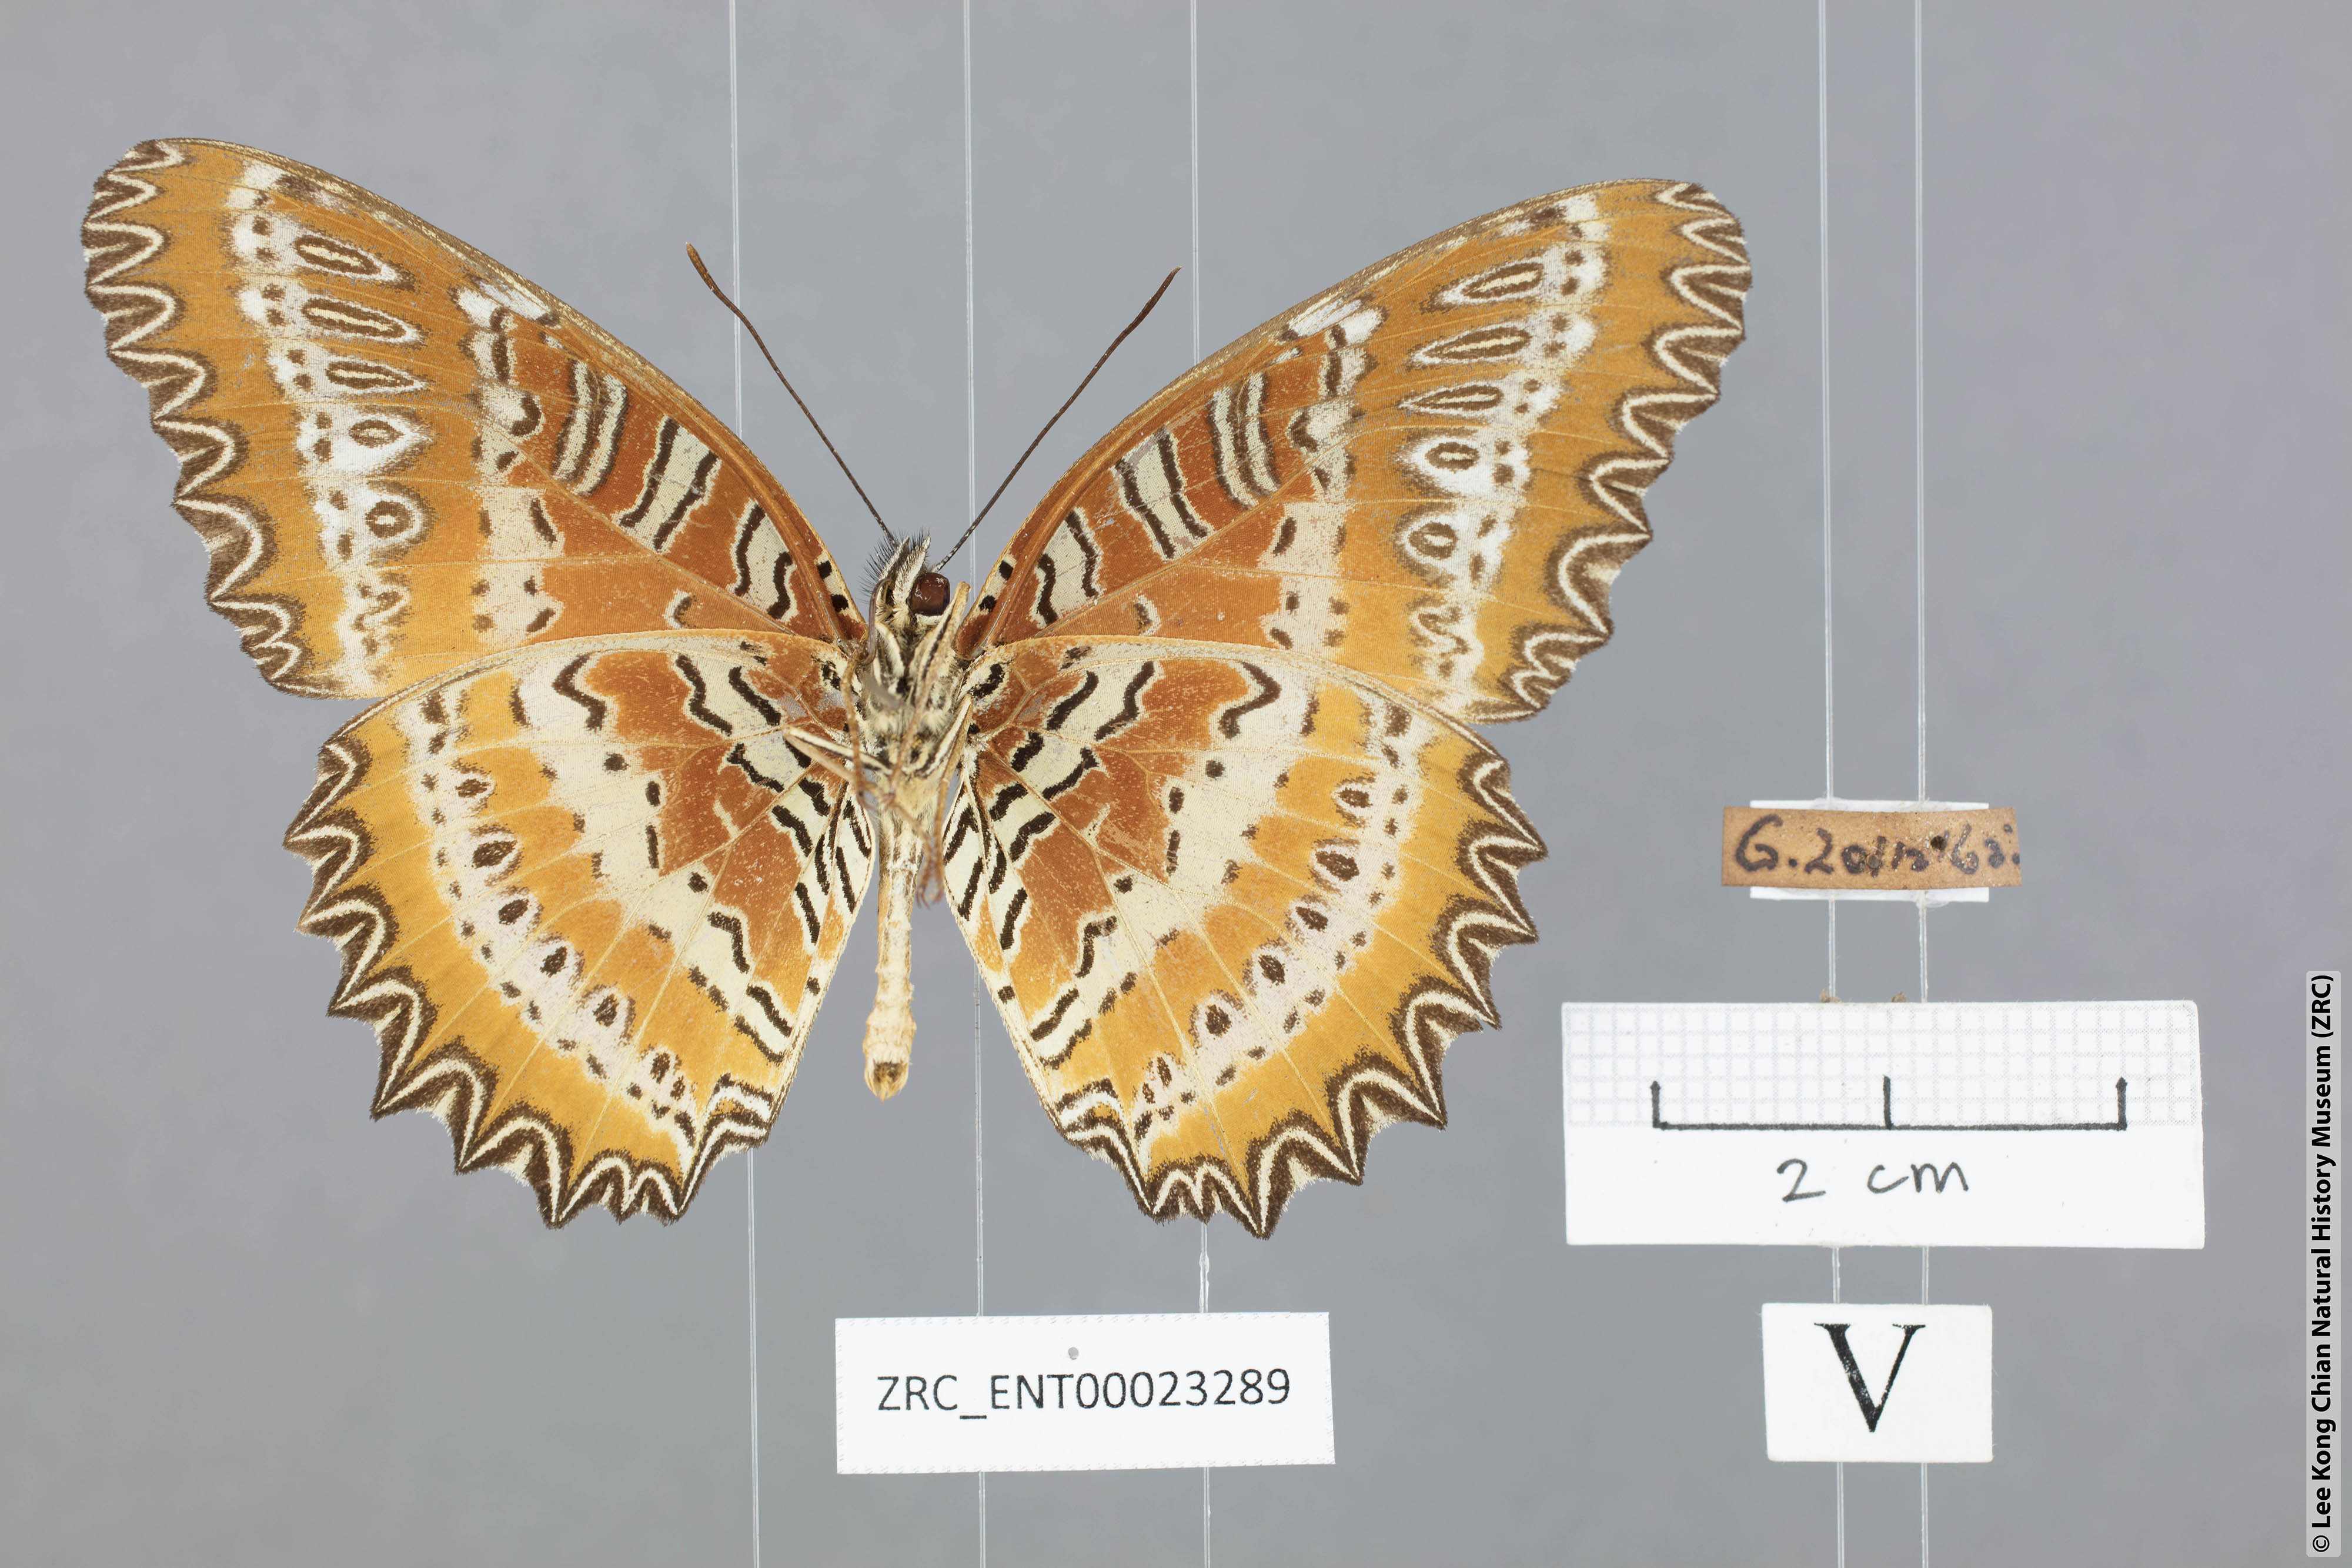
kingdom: Animalia
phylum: Arthropoda
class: Insecta
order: Lepidoptera
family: Nymphalidae
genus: Cethosia
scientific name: Cethosia biblis
